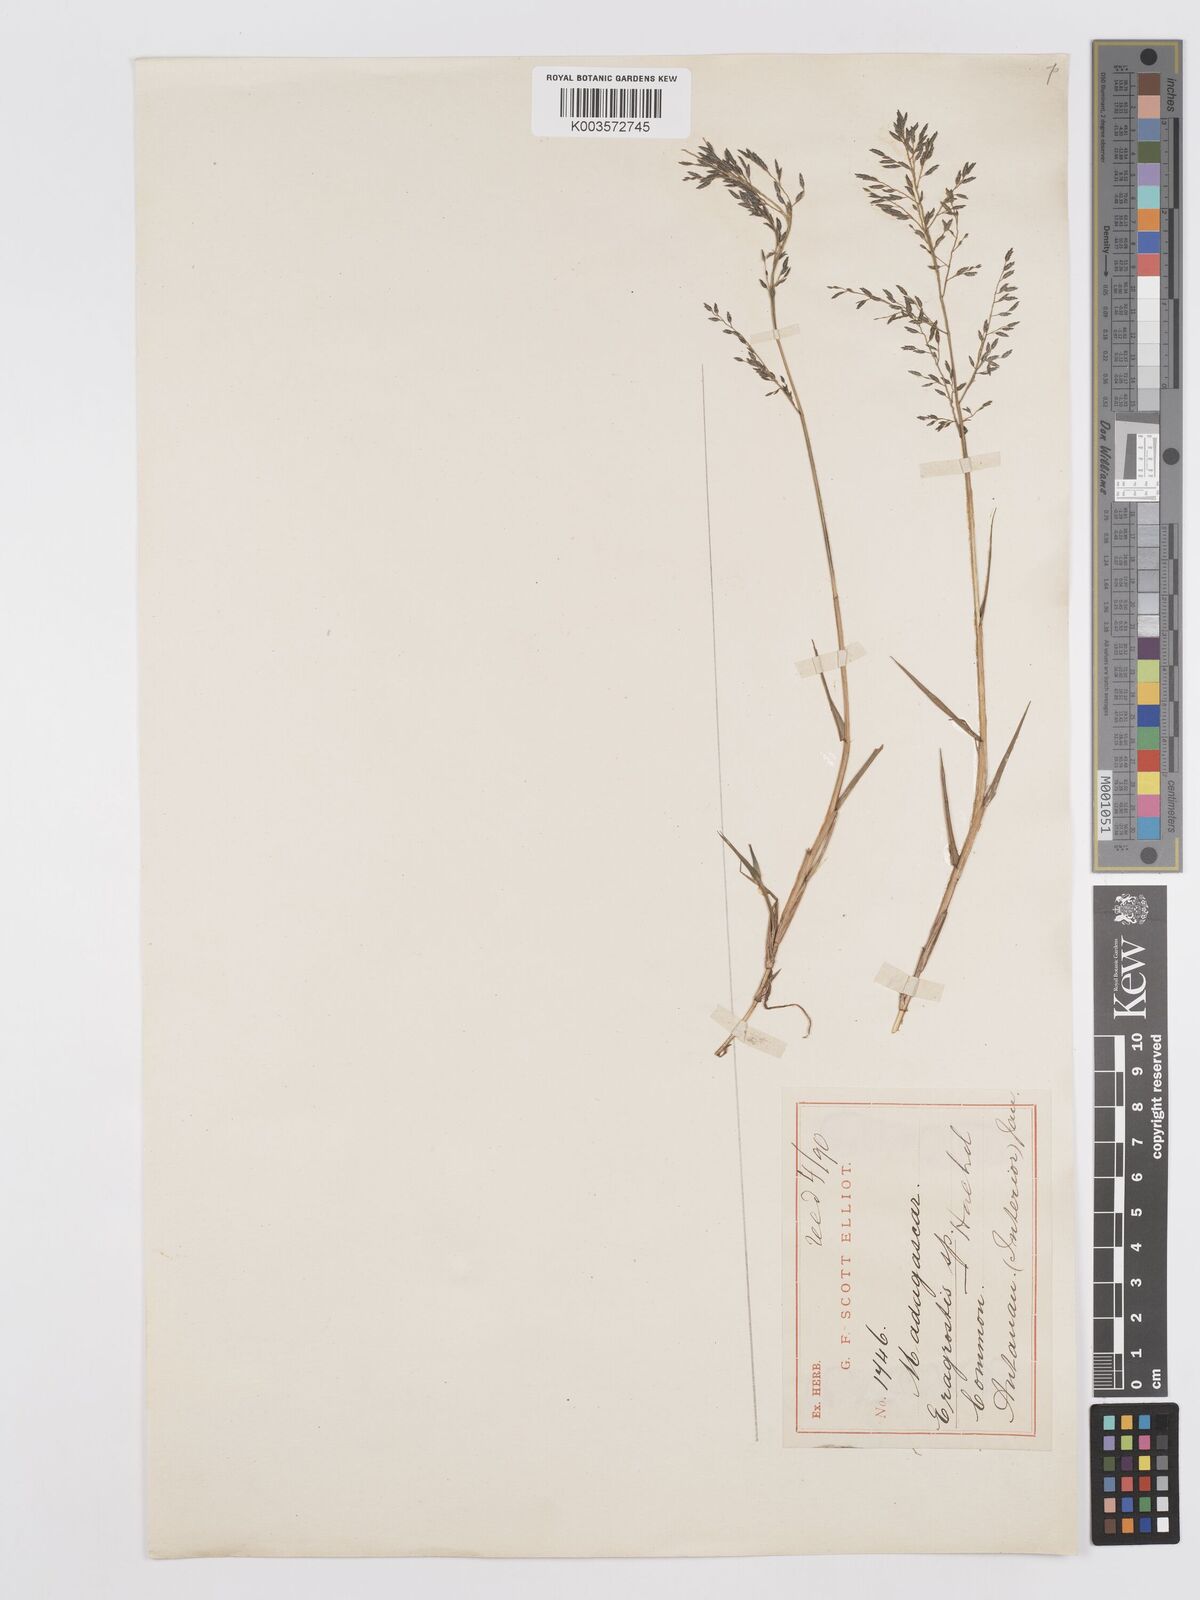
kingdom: Plantae
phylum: Tracheophyta
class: Liliopsida
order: Poales
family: Poaceae
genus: Eragrostis
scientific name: Eragrostis
